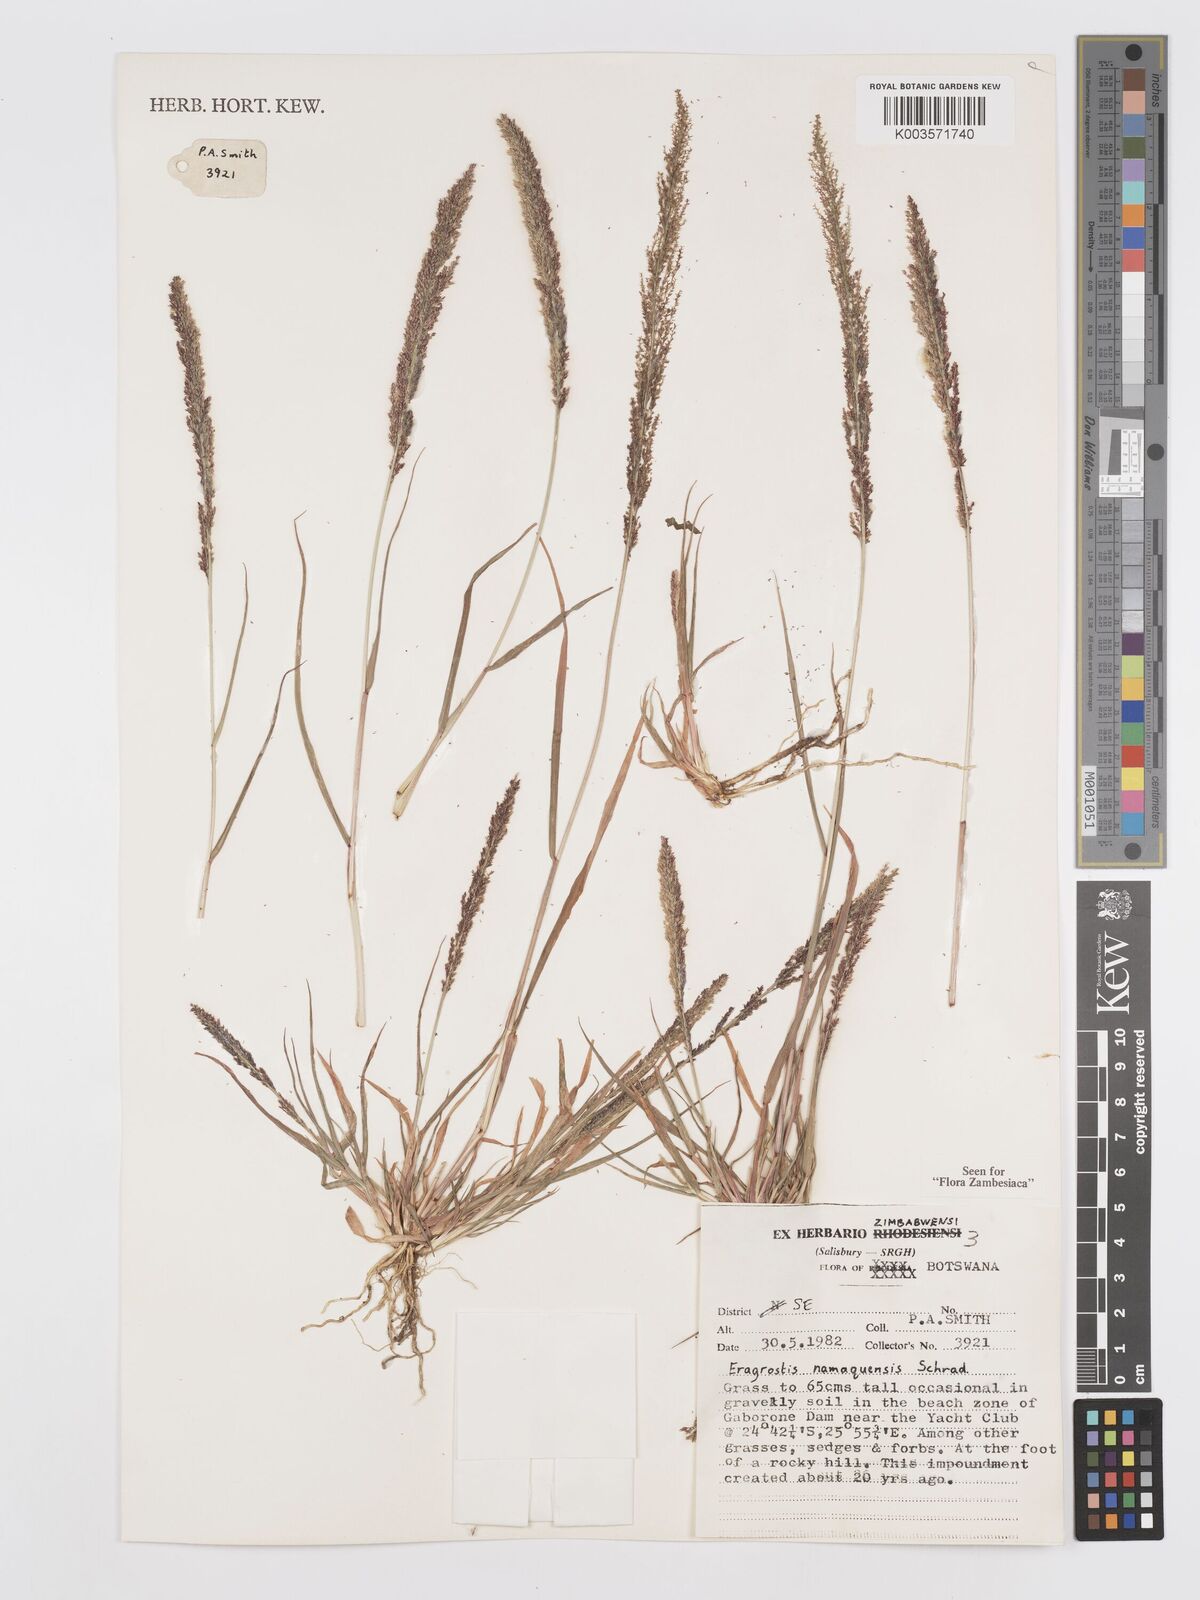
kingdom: Plantae
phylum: Tracheophyta
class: Liliopsida
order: Poales
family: Poaceae
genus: Eragrostis
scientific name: Eragrostis japonica
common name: Pond lovegrass
